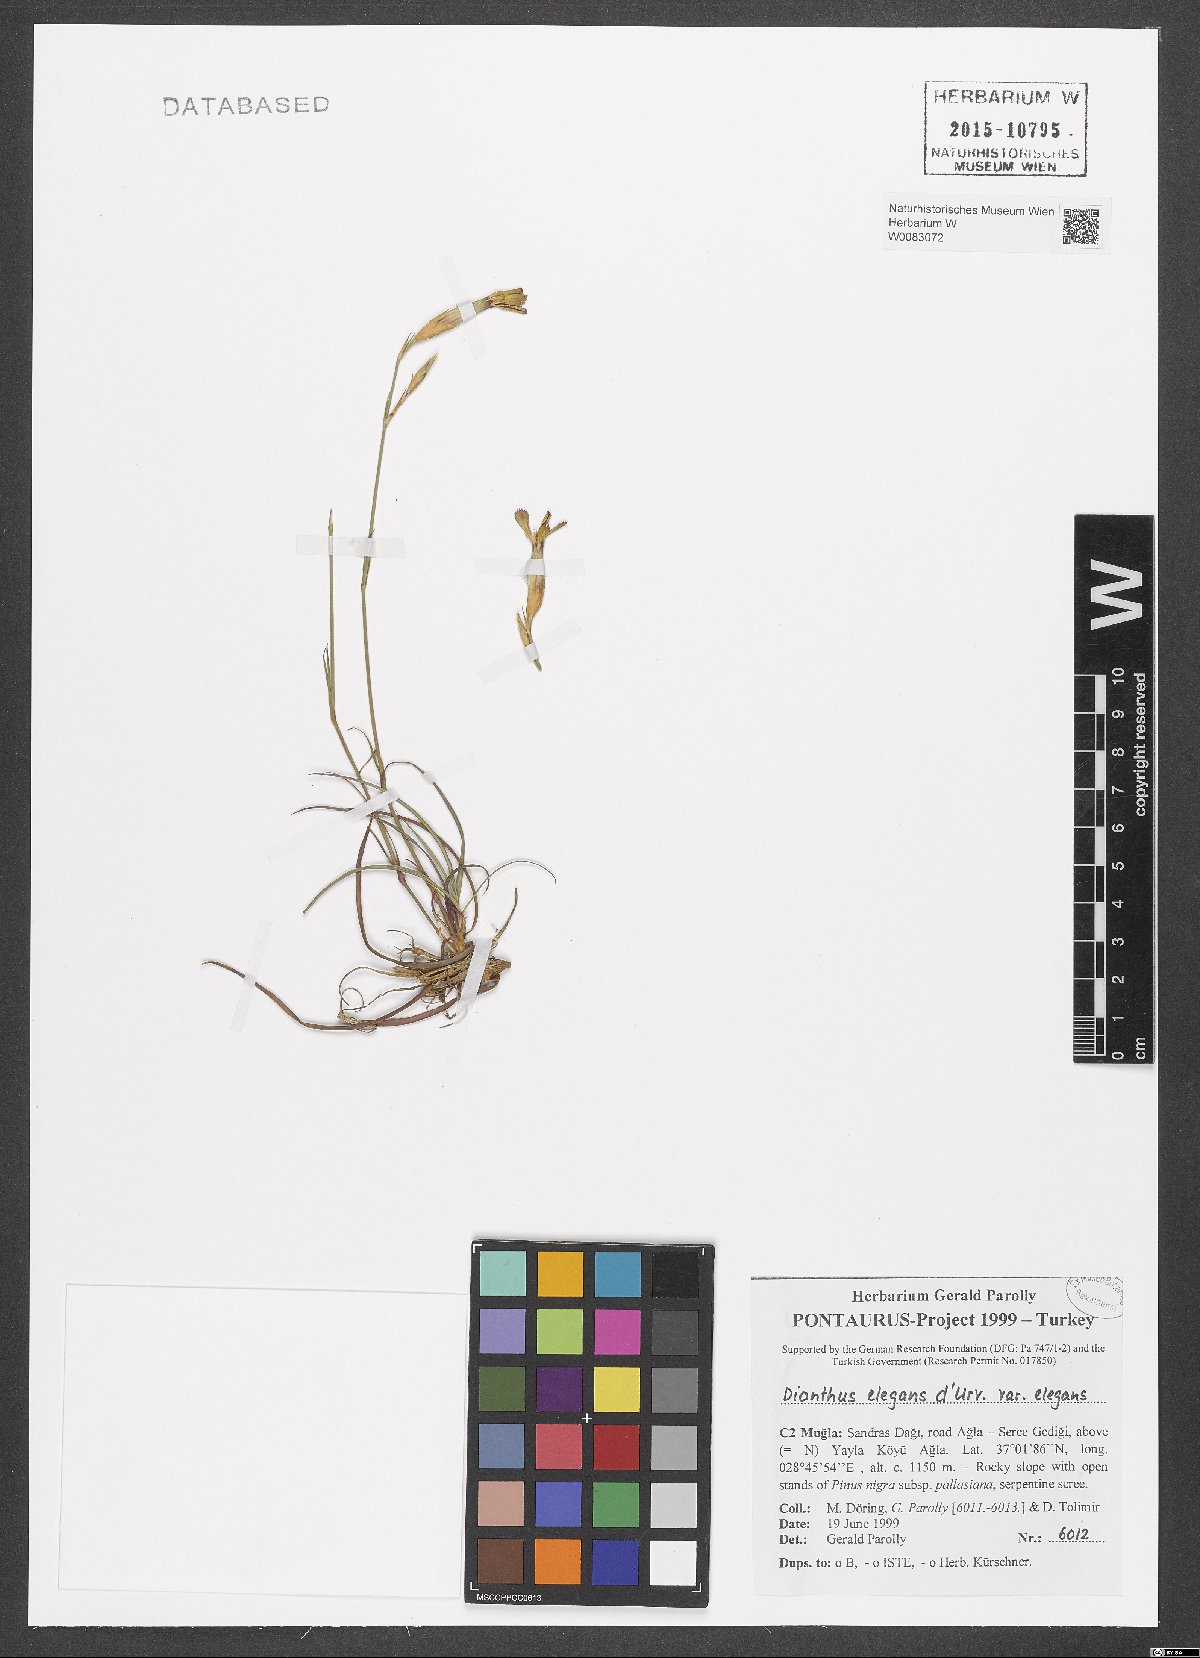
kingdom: Plantae
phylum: Tracheophyta
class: Magnoliopsida
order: Caryophyllales
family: Caryophyllaceae
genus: Dianthus
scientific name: Dianthus elegans
